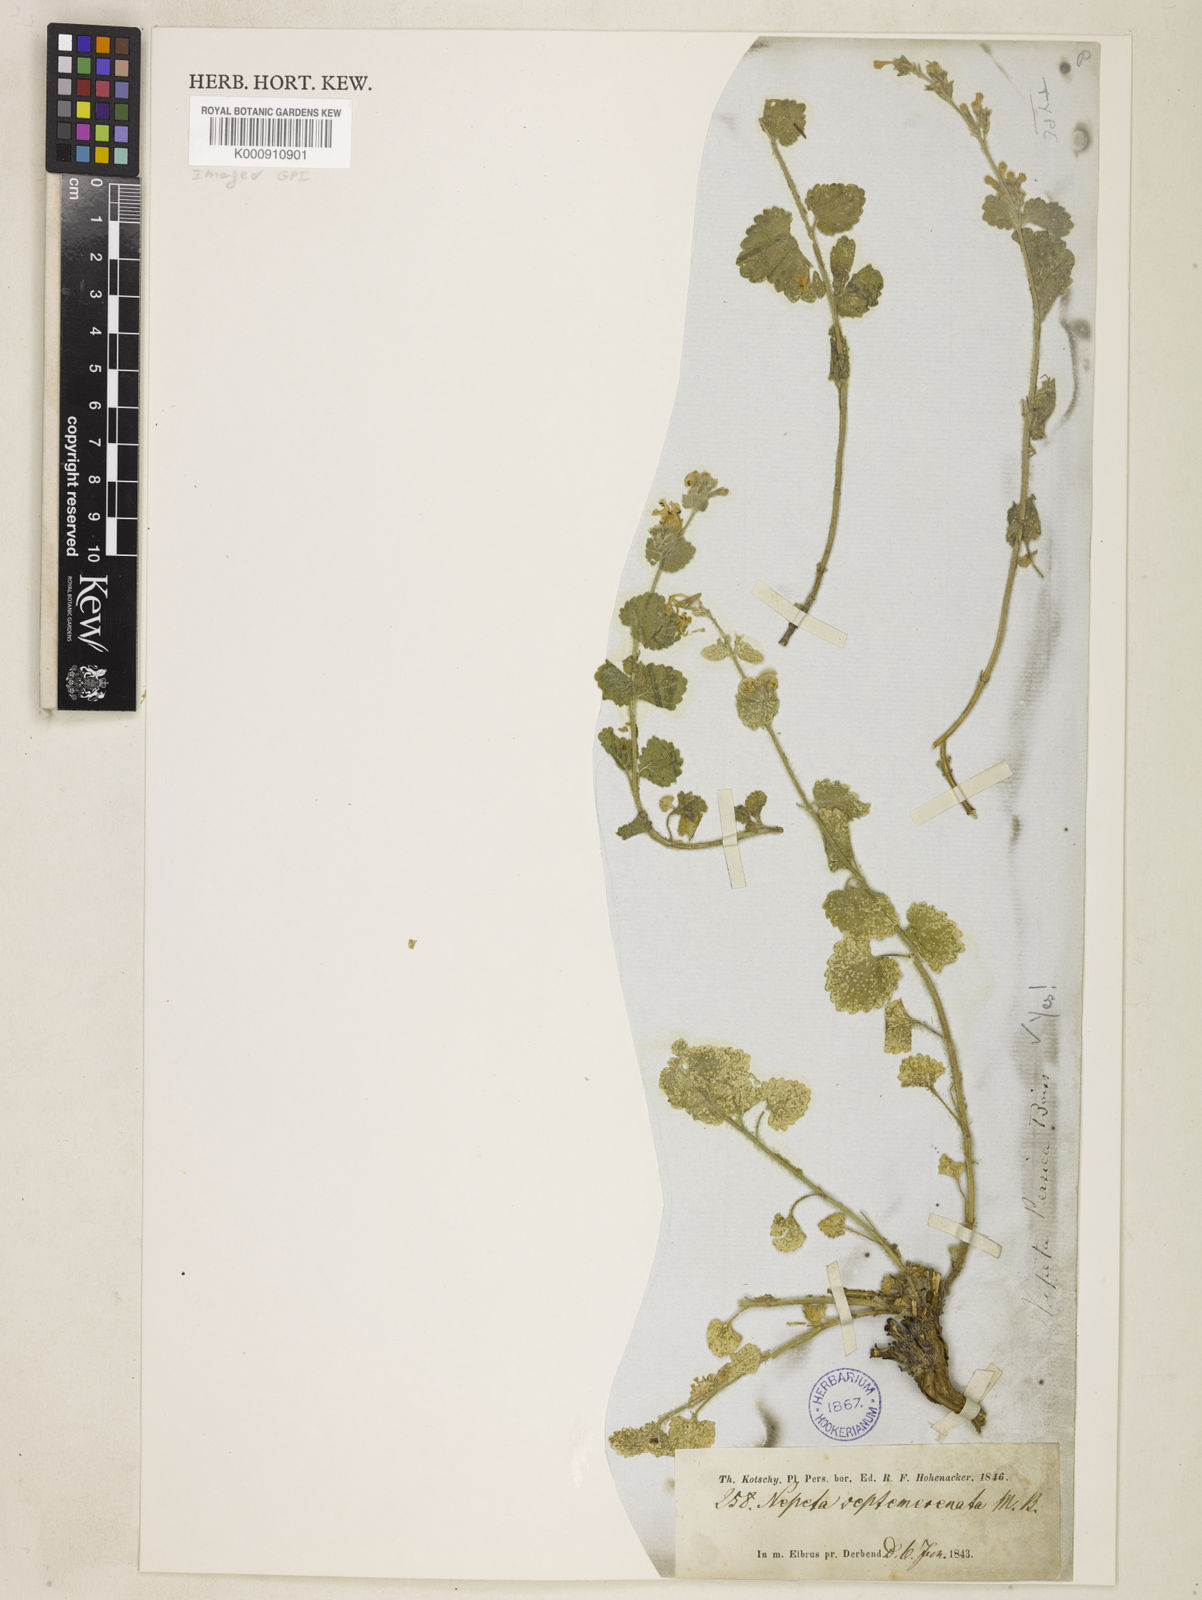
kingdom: Plantae
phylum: Tracheophyta
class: Magnoliopsida
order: Lamiales
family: Lamiaceae
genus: Nepeta
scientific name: Nepeta persica
